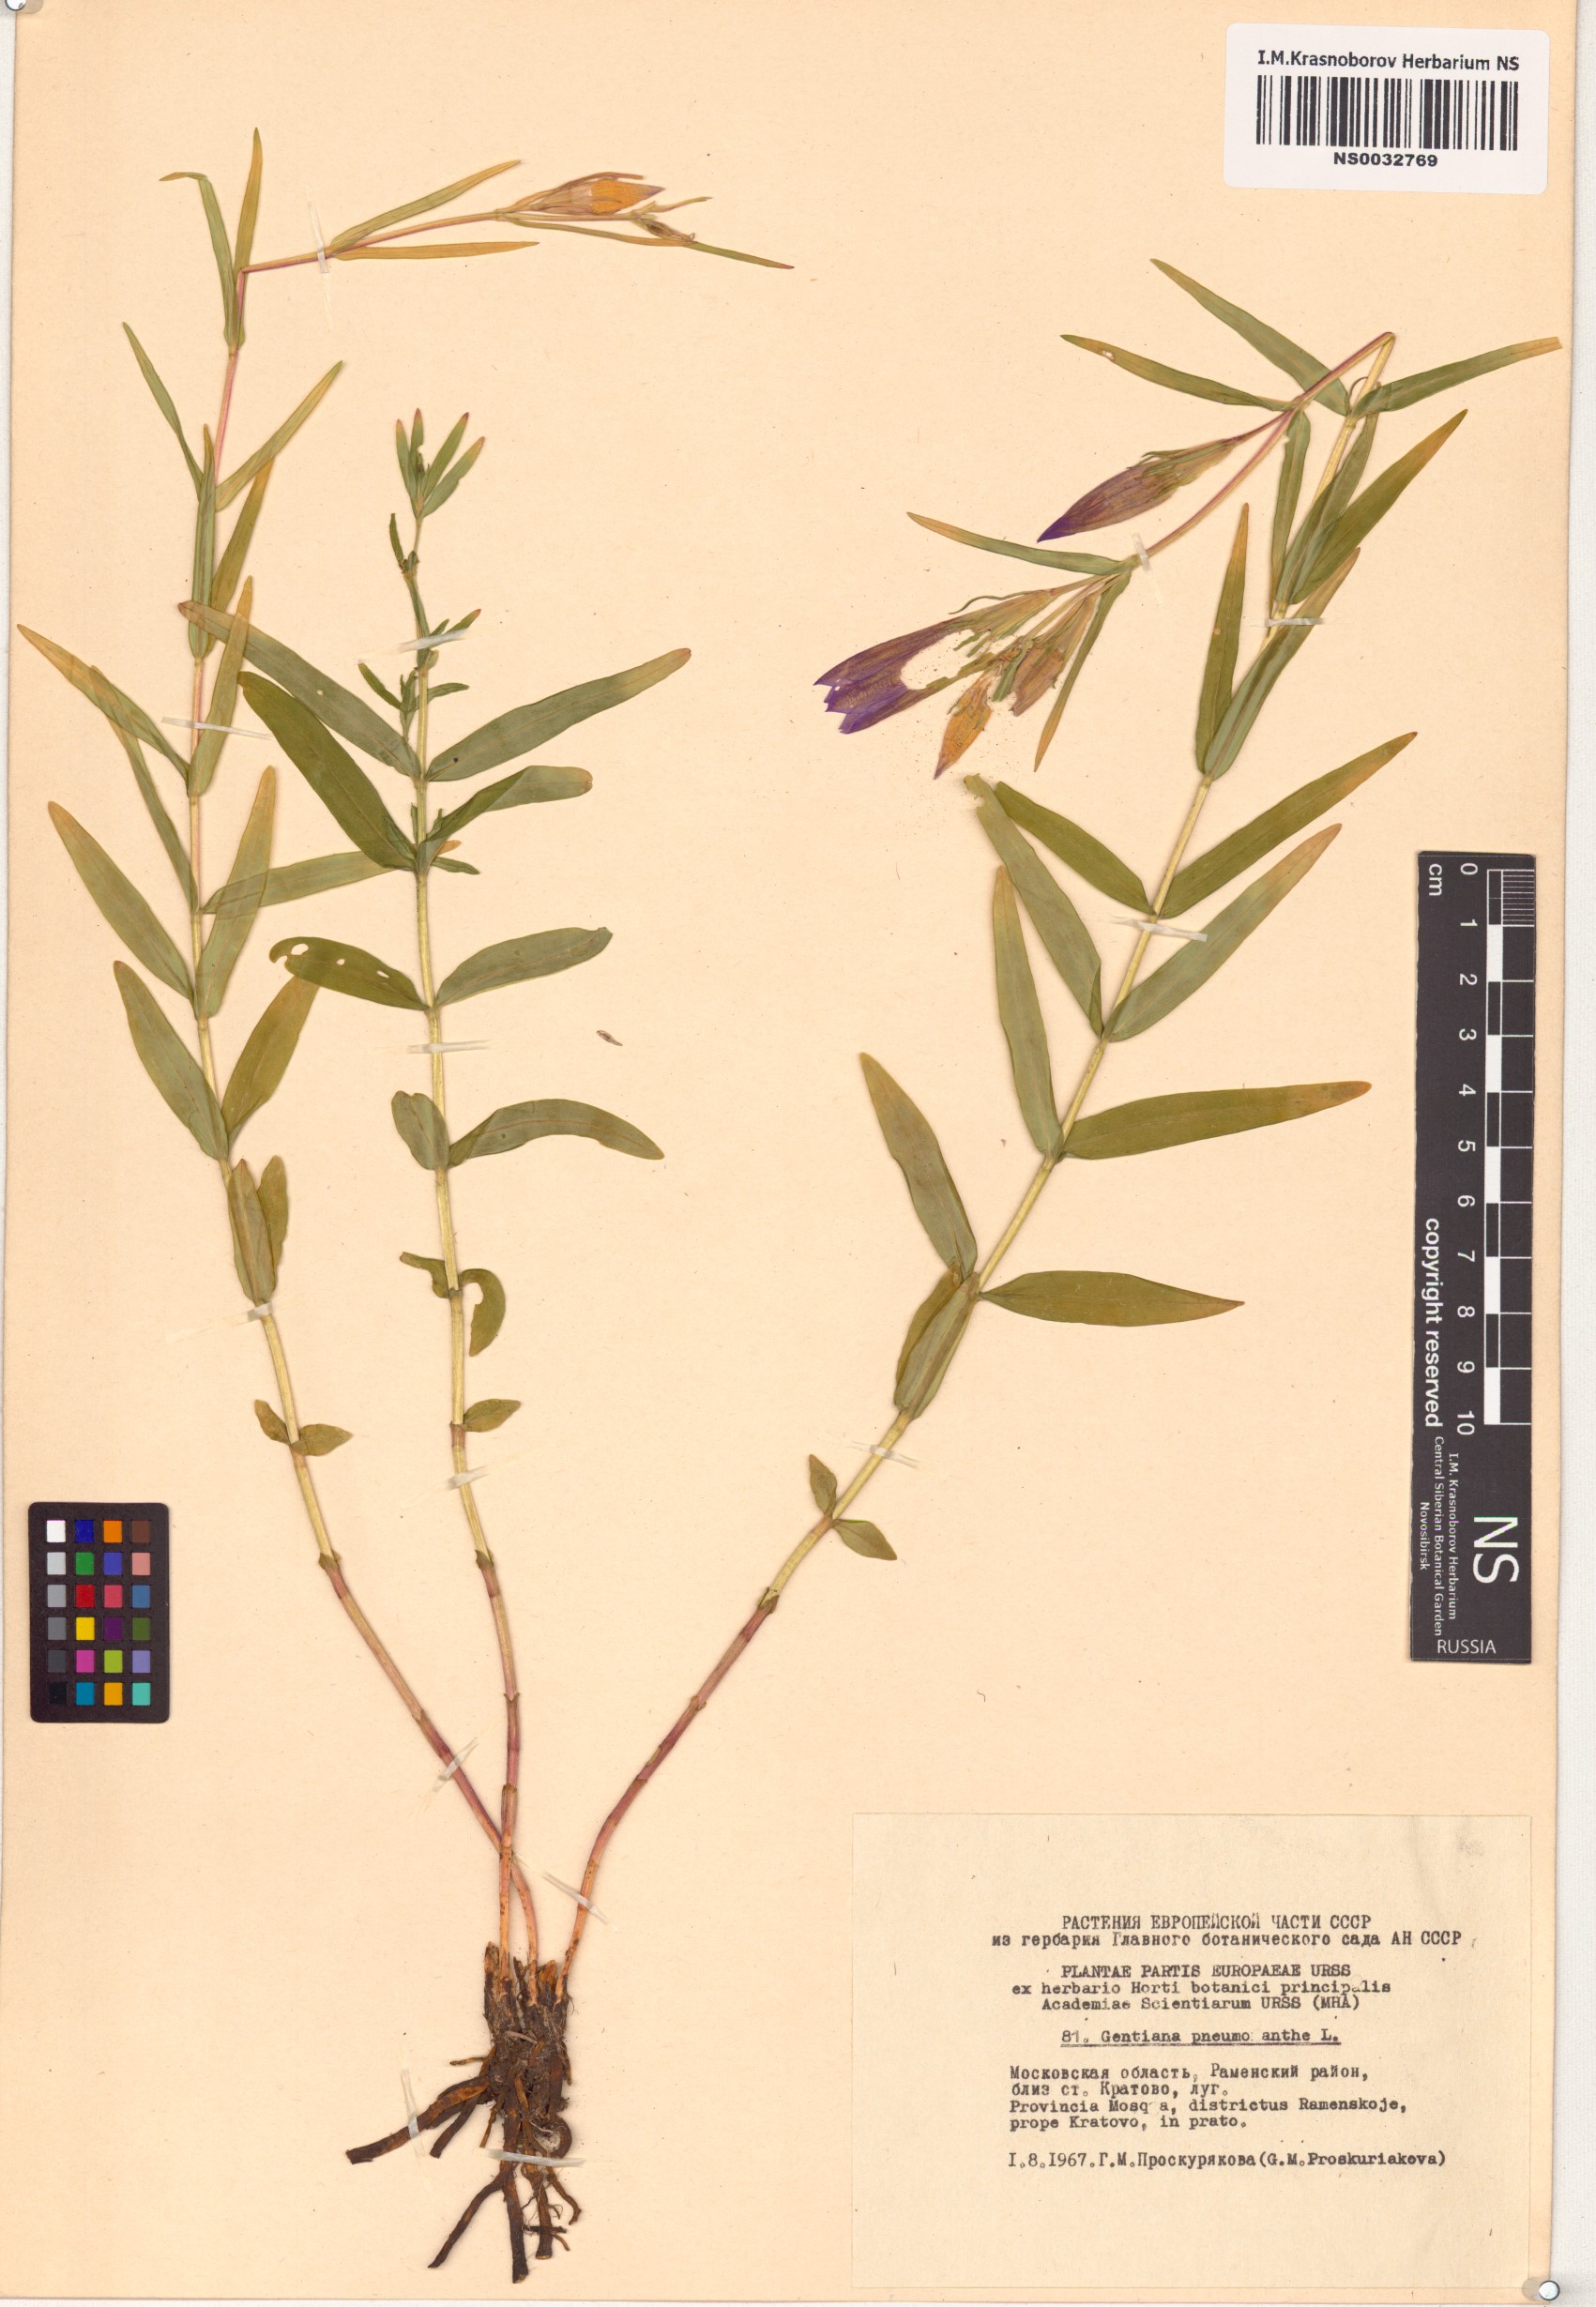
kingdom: Plantae
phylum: Tracheophyta
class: Magnoliopsida
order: Gentianales
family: Gentianaceae
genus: Gentiana
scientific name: Gentiana pneumonanthe
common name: Marsh gentian
